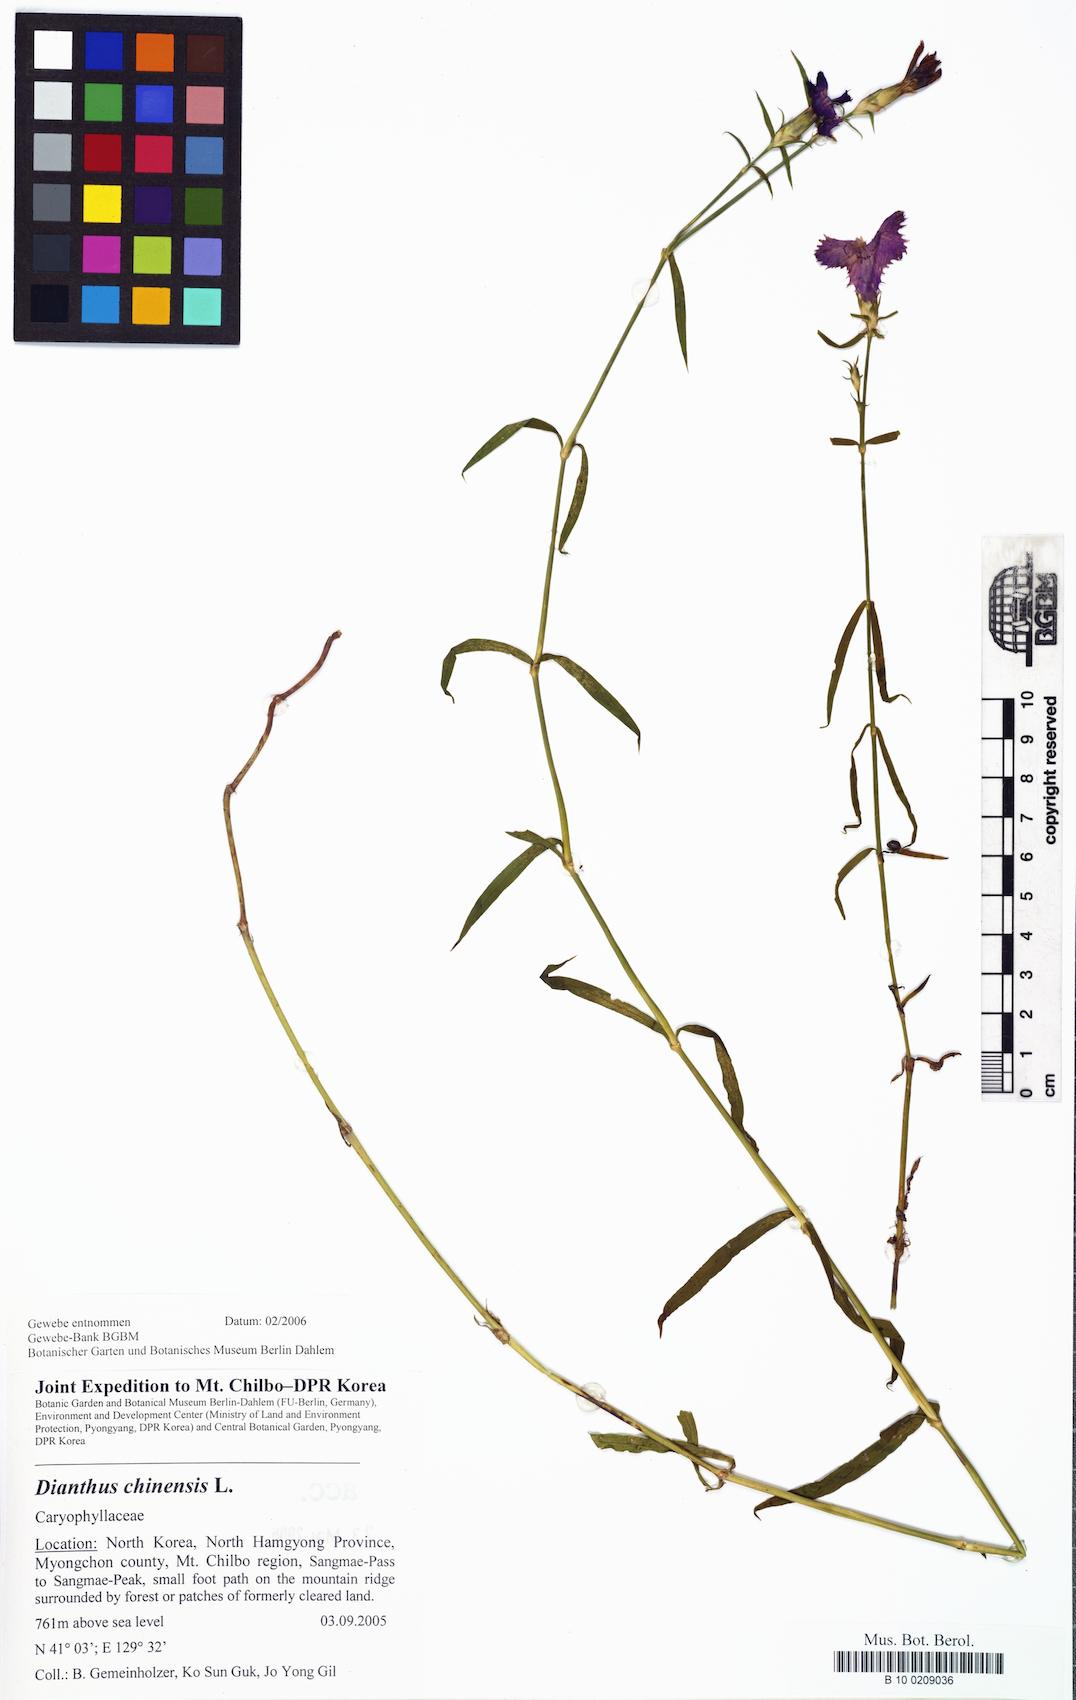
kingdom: Plantae
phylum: Tracheophyta
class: Magnoliopsida
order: Caryophyllales
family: Caryophyllaceae
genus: Dianthus
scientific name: Dianthus chinensis
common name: Rainbow pink
